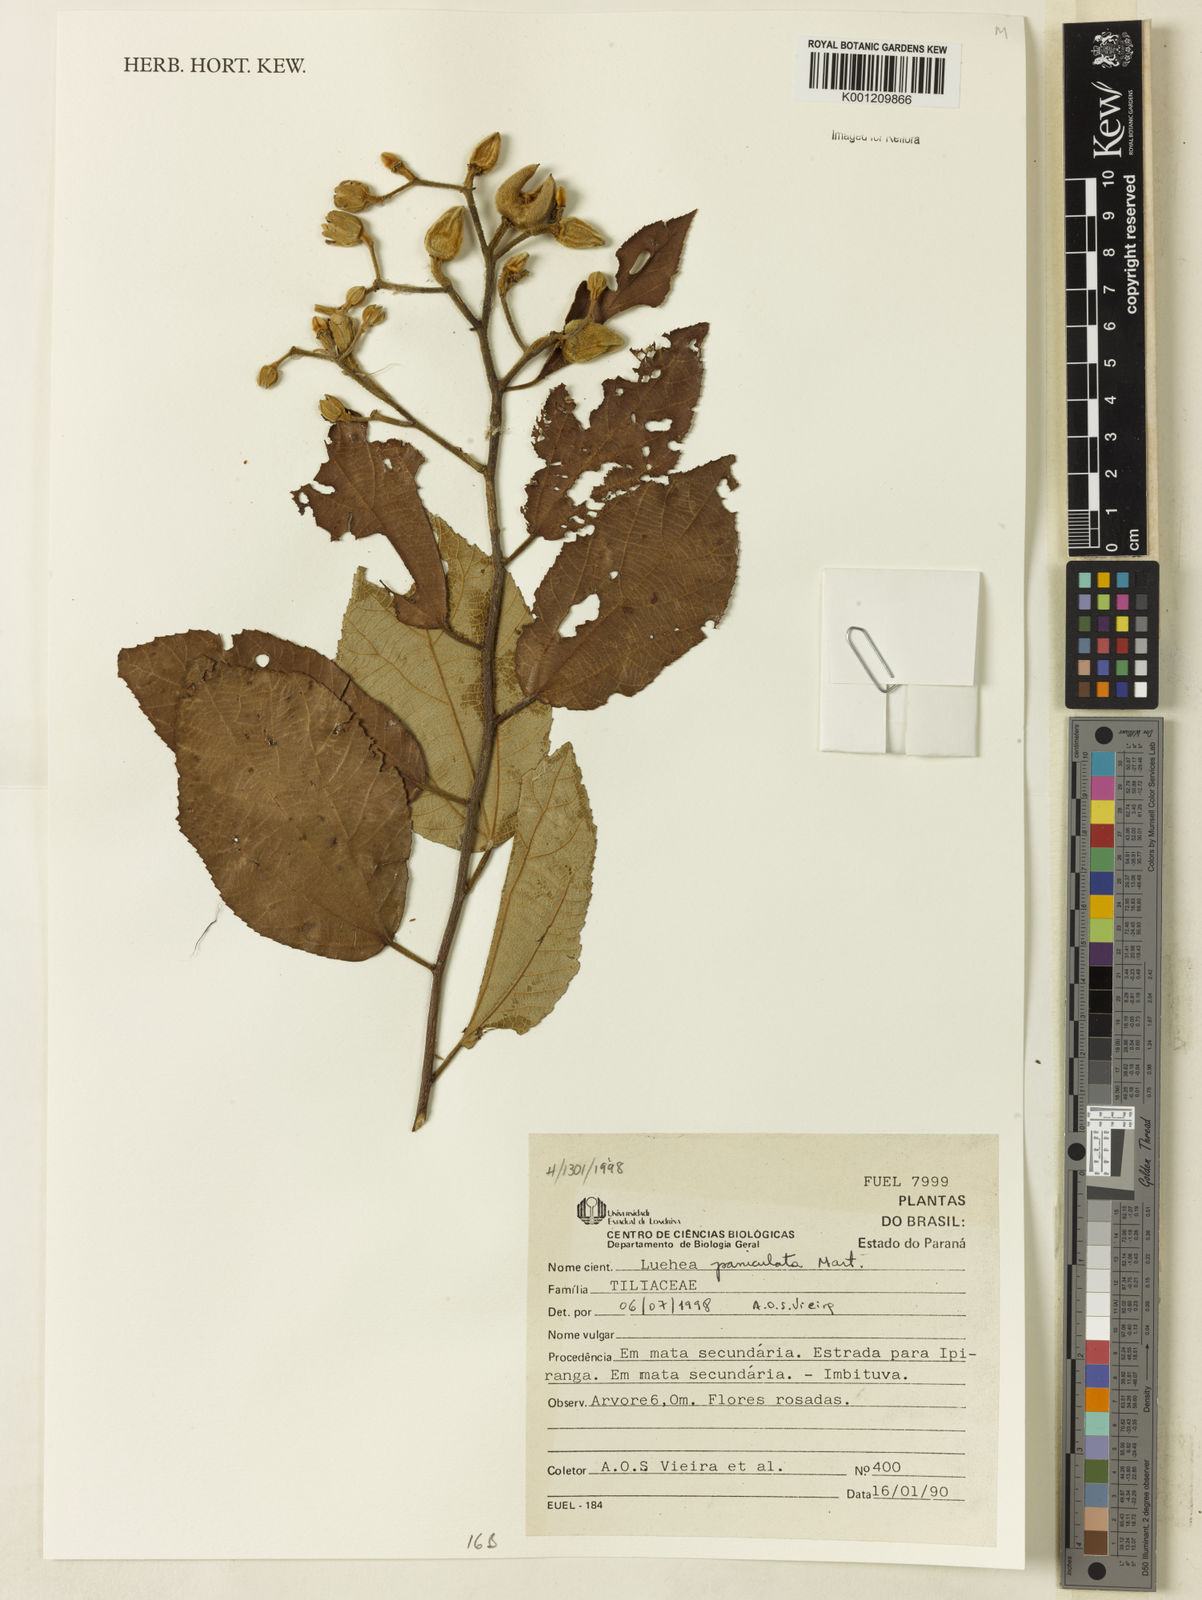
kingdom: Plantae
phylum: Tracheophyta
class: Magnoliopsida
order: Malvales
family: Malvaceae
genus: Luehea
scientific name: Luehea paniculata
